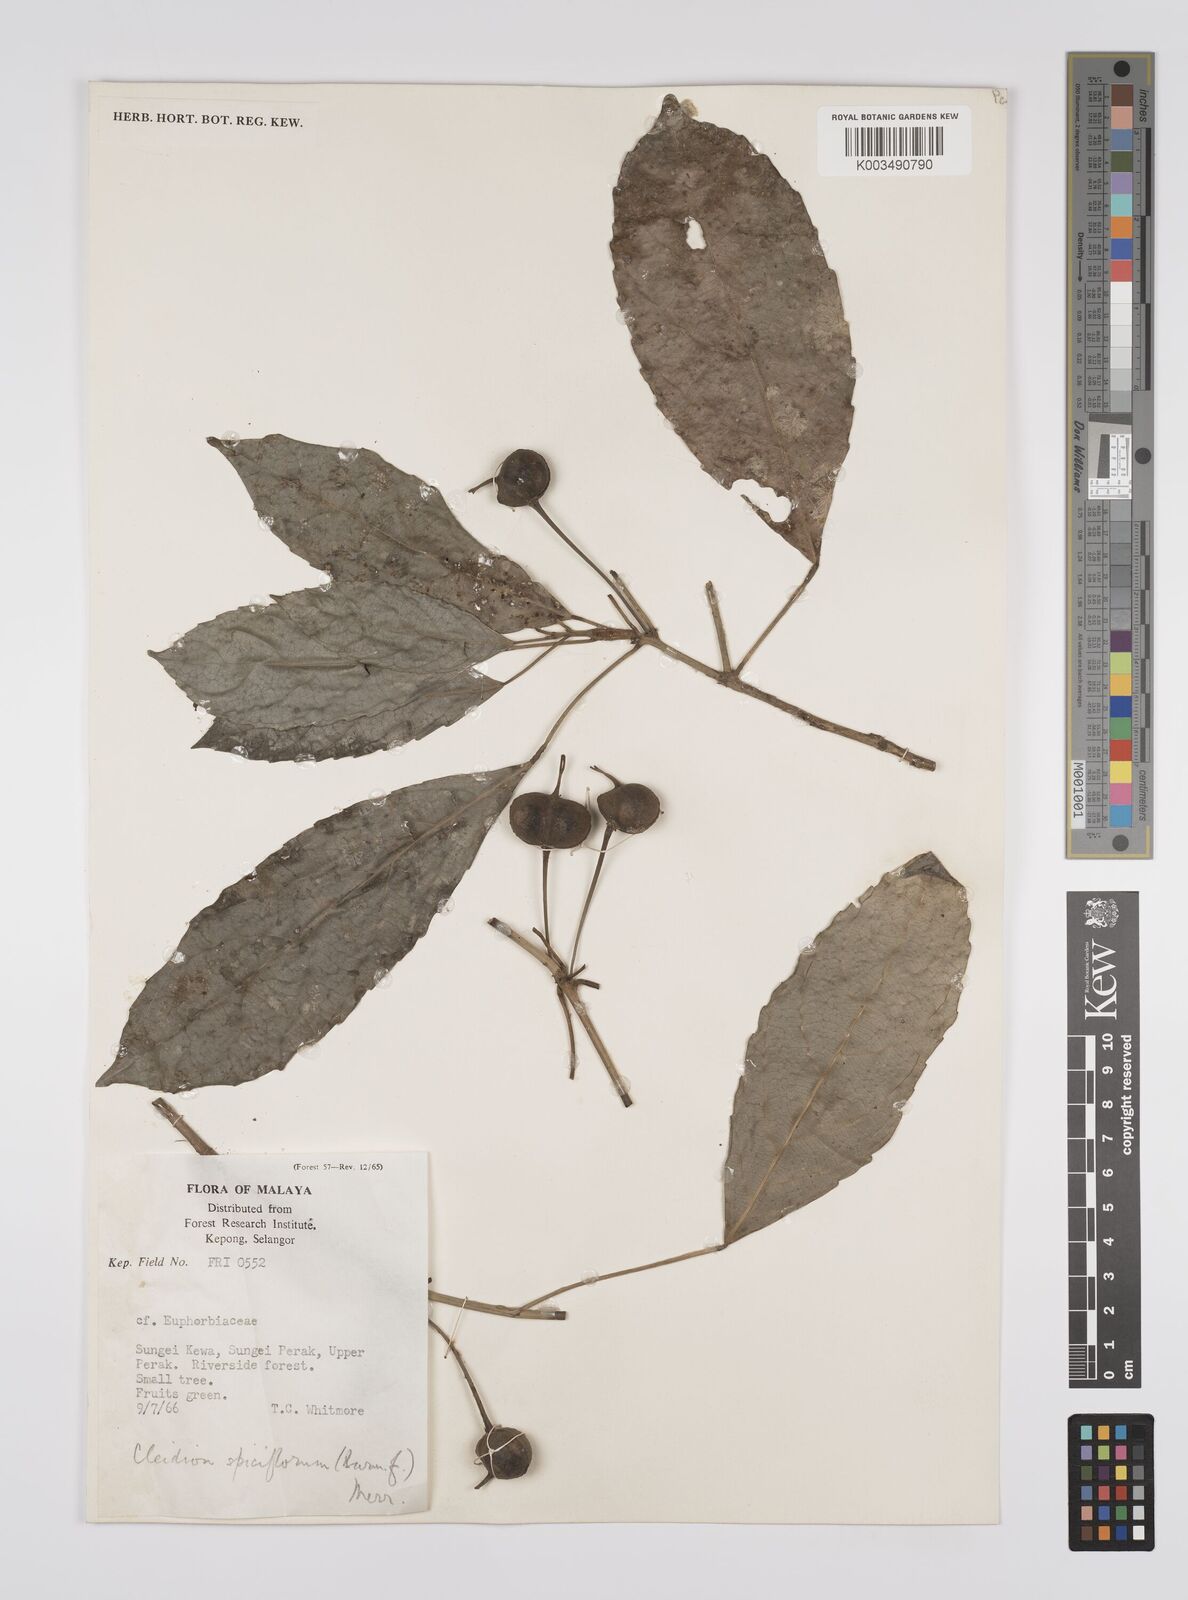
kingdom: Plantae
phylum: Tracheophyta
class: Magnoliopsida
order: Malpighiales
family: Euphorbiaceae
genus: Acalypha
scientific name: Acalypha spiciflora
